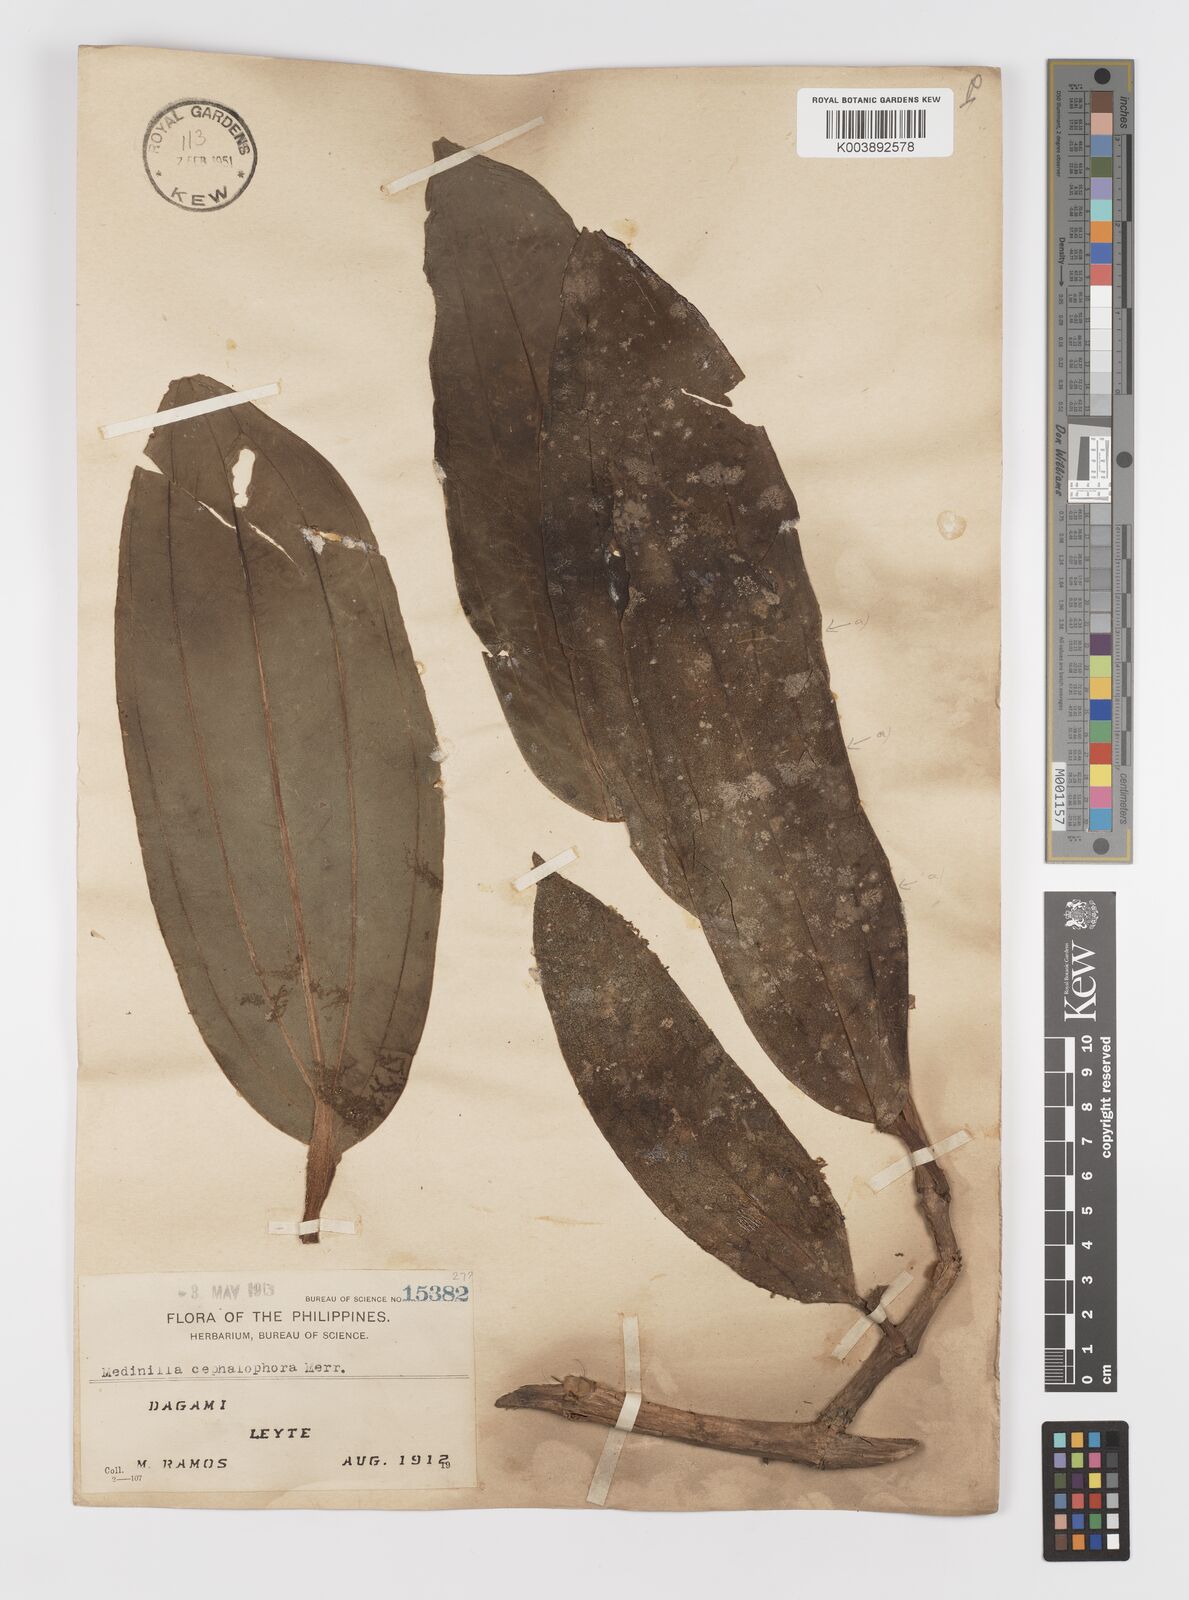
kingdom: Plantae
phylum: Tracheophyta
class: Magnoliopsida
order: Myrtales
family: Melastomataceae
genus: Medinilla
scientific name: Medinilla cephalophora
